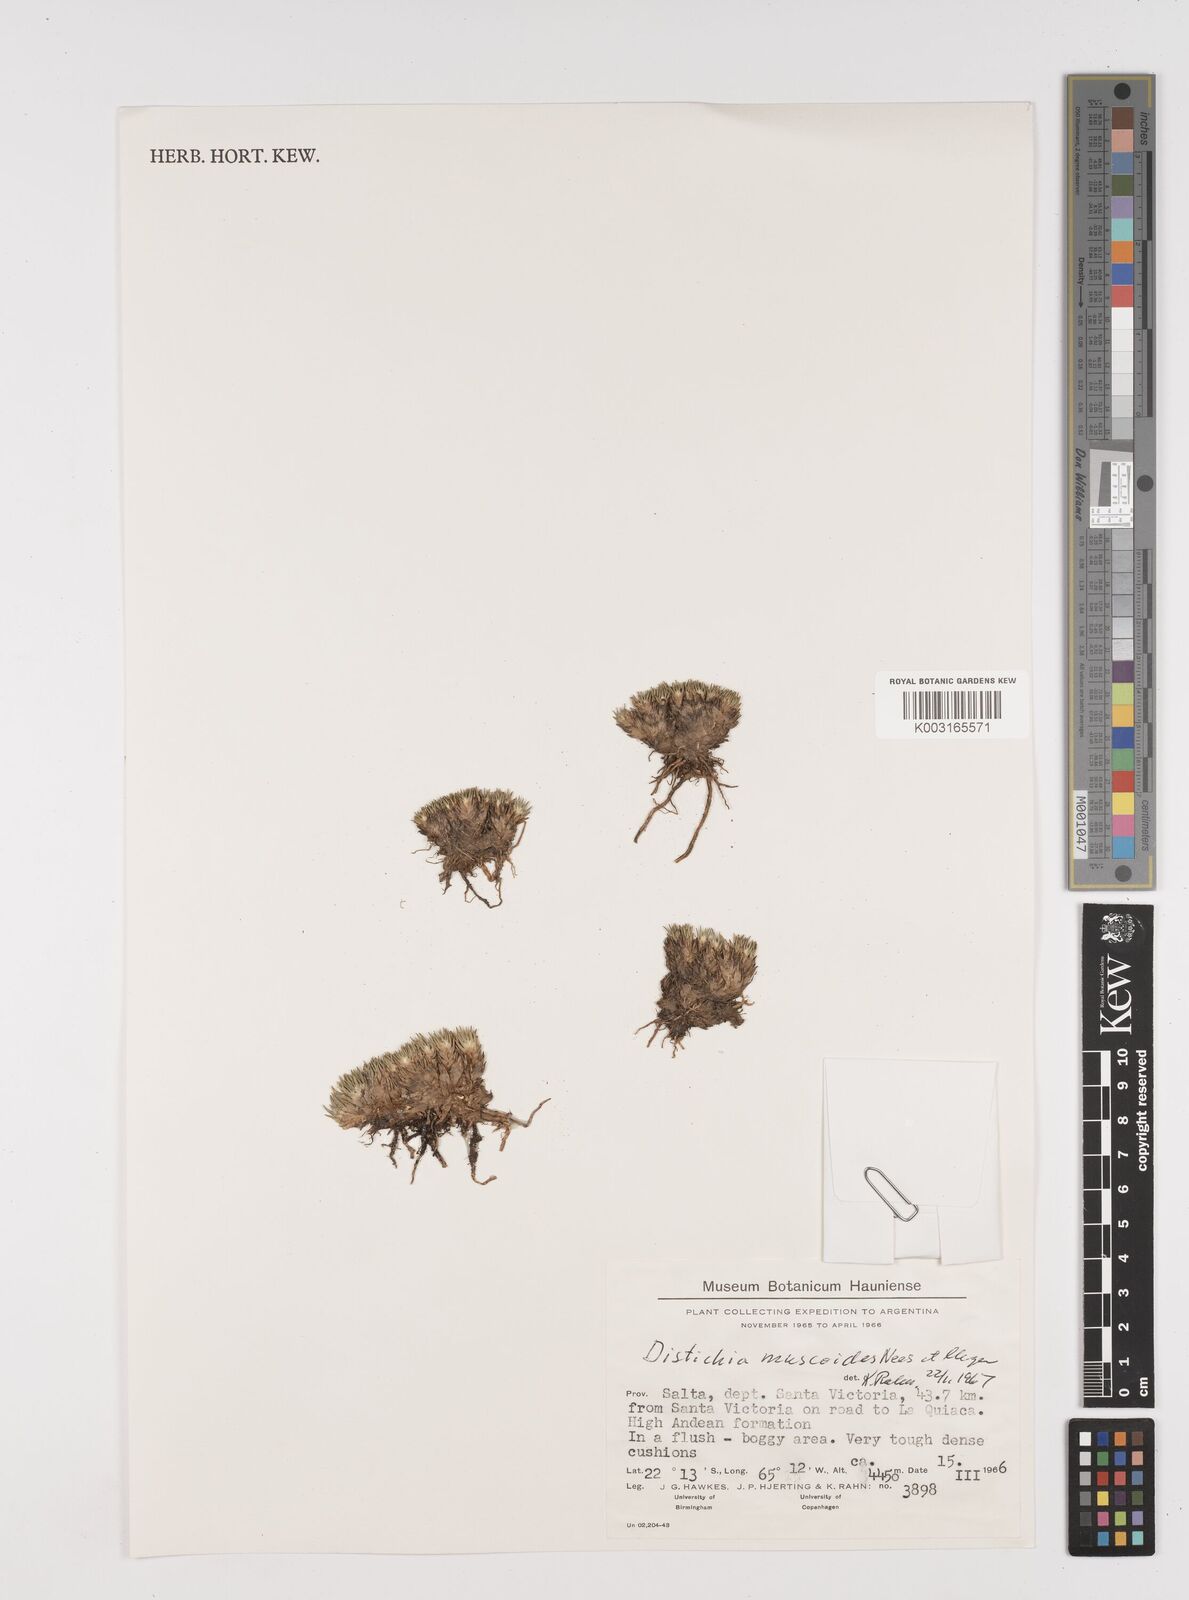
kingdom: Plantae
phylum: Tracheophyta
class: Liliopsida
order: Poales
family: Juncaceae
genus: Distichia
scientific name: Distichia muscoides
